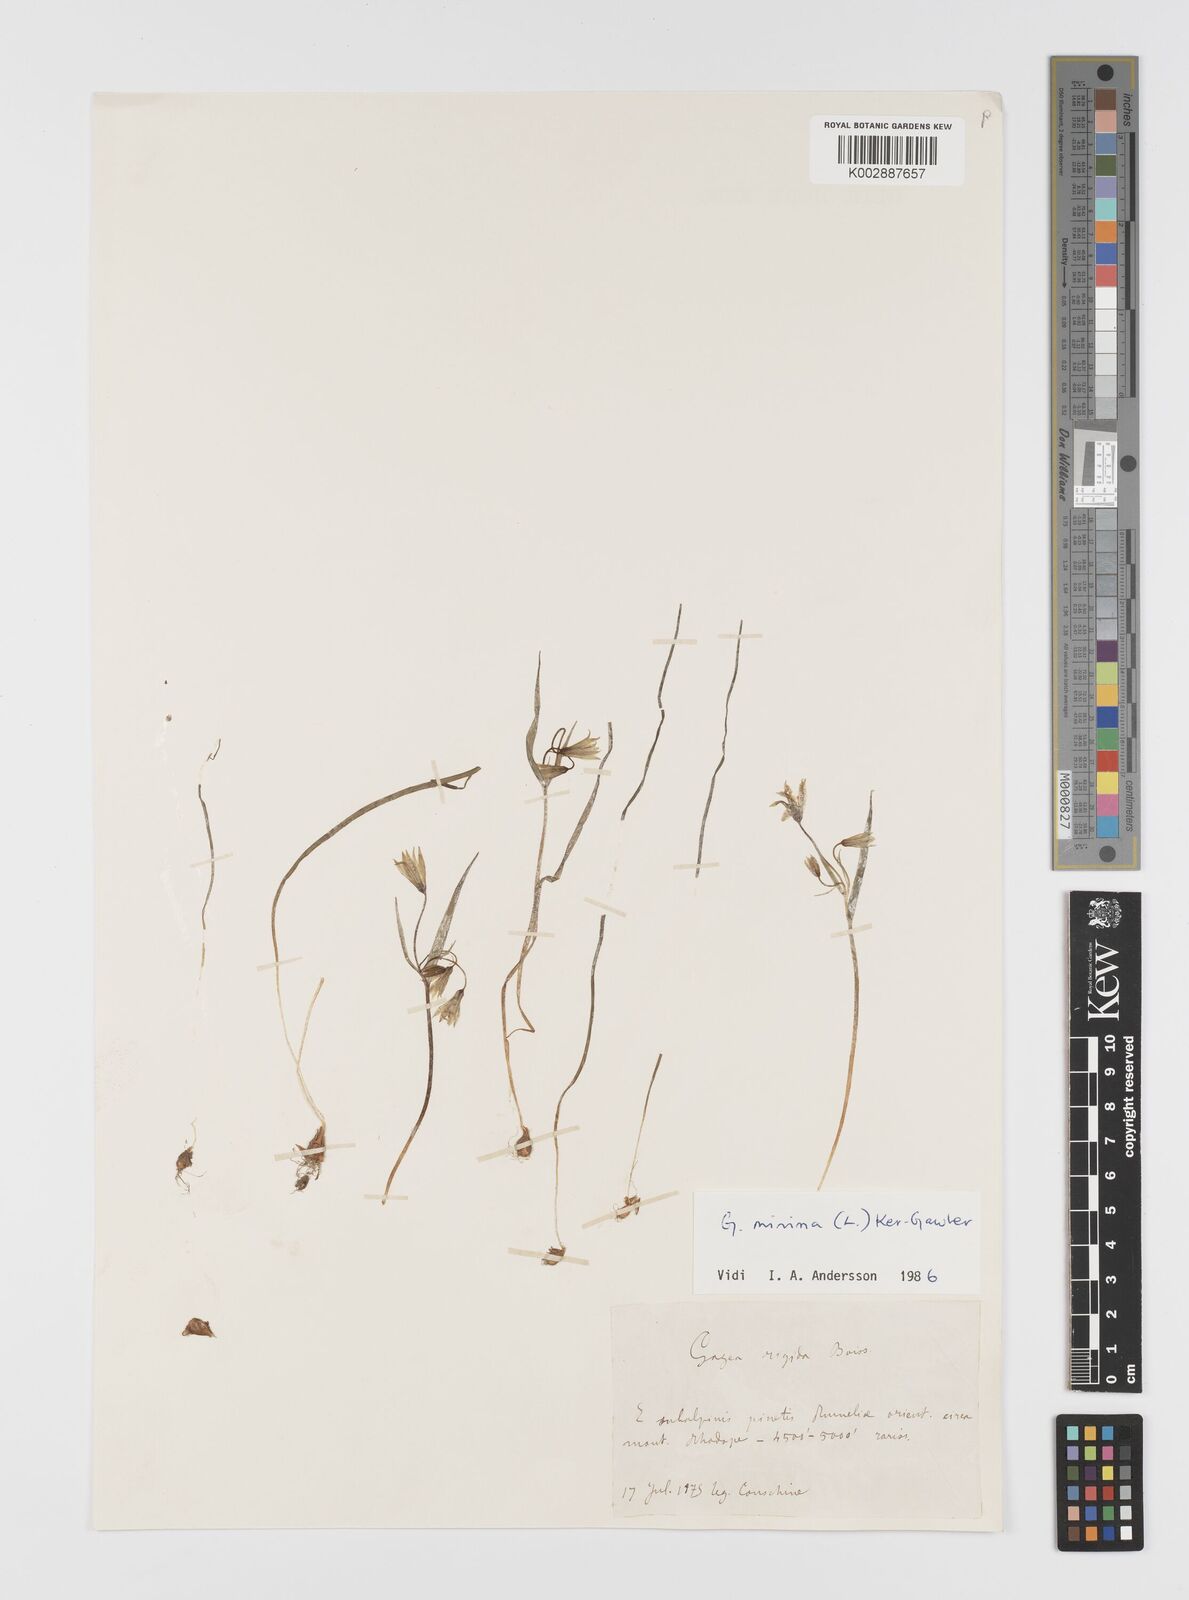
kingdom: Plantae
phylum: Tracheophyta
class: Liliopsida
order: Liliales
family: Liliaceae
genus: Gagea
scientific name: Gagea polymorpha
